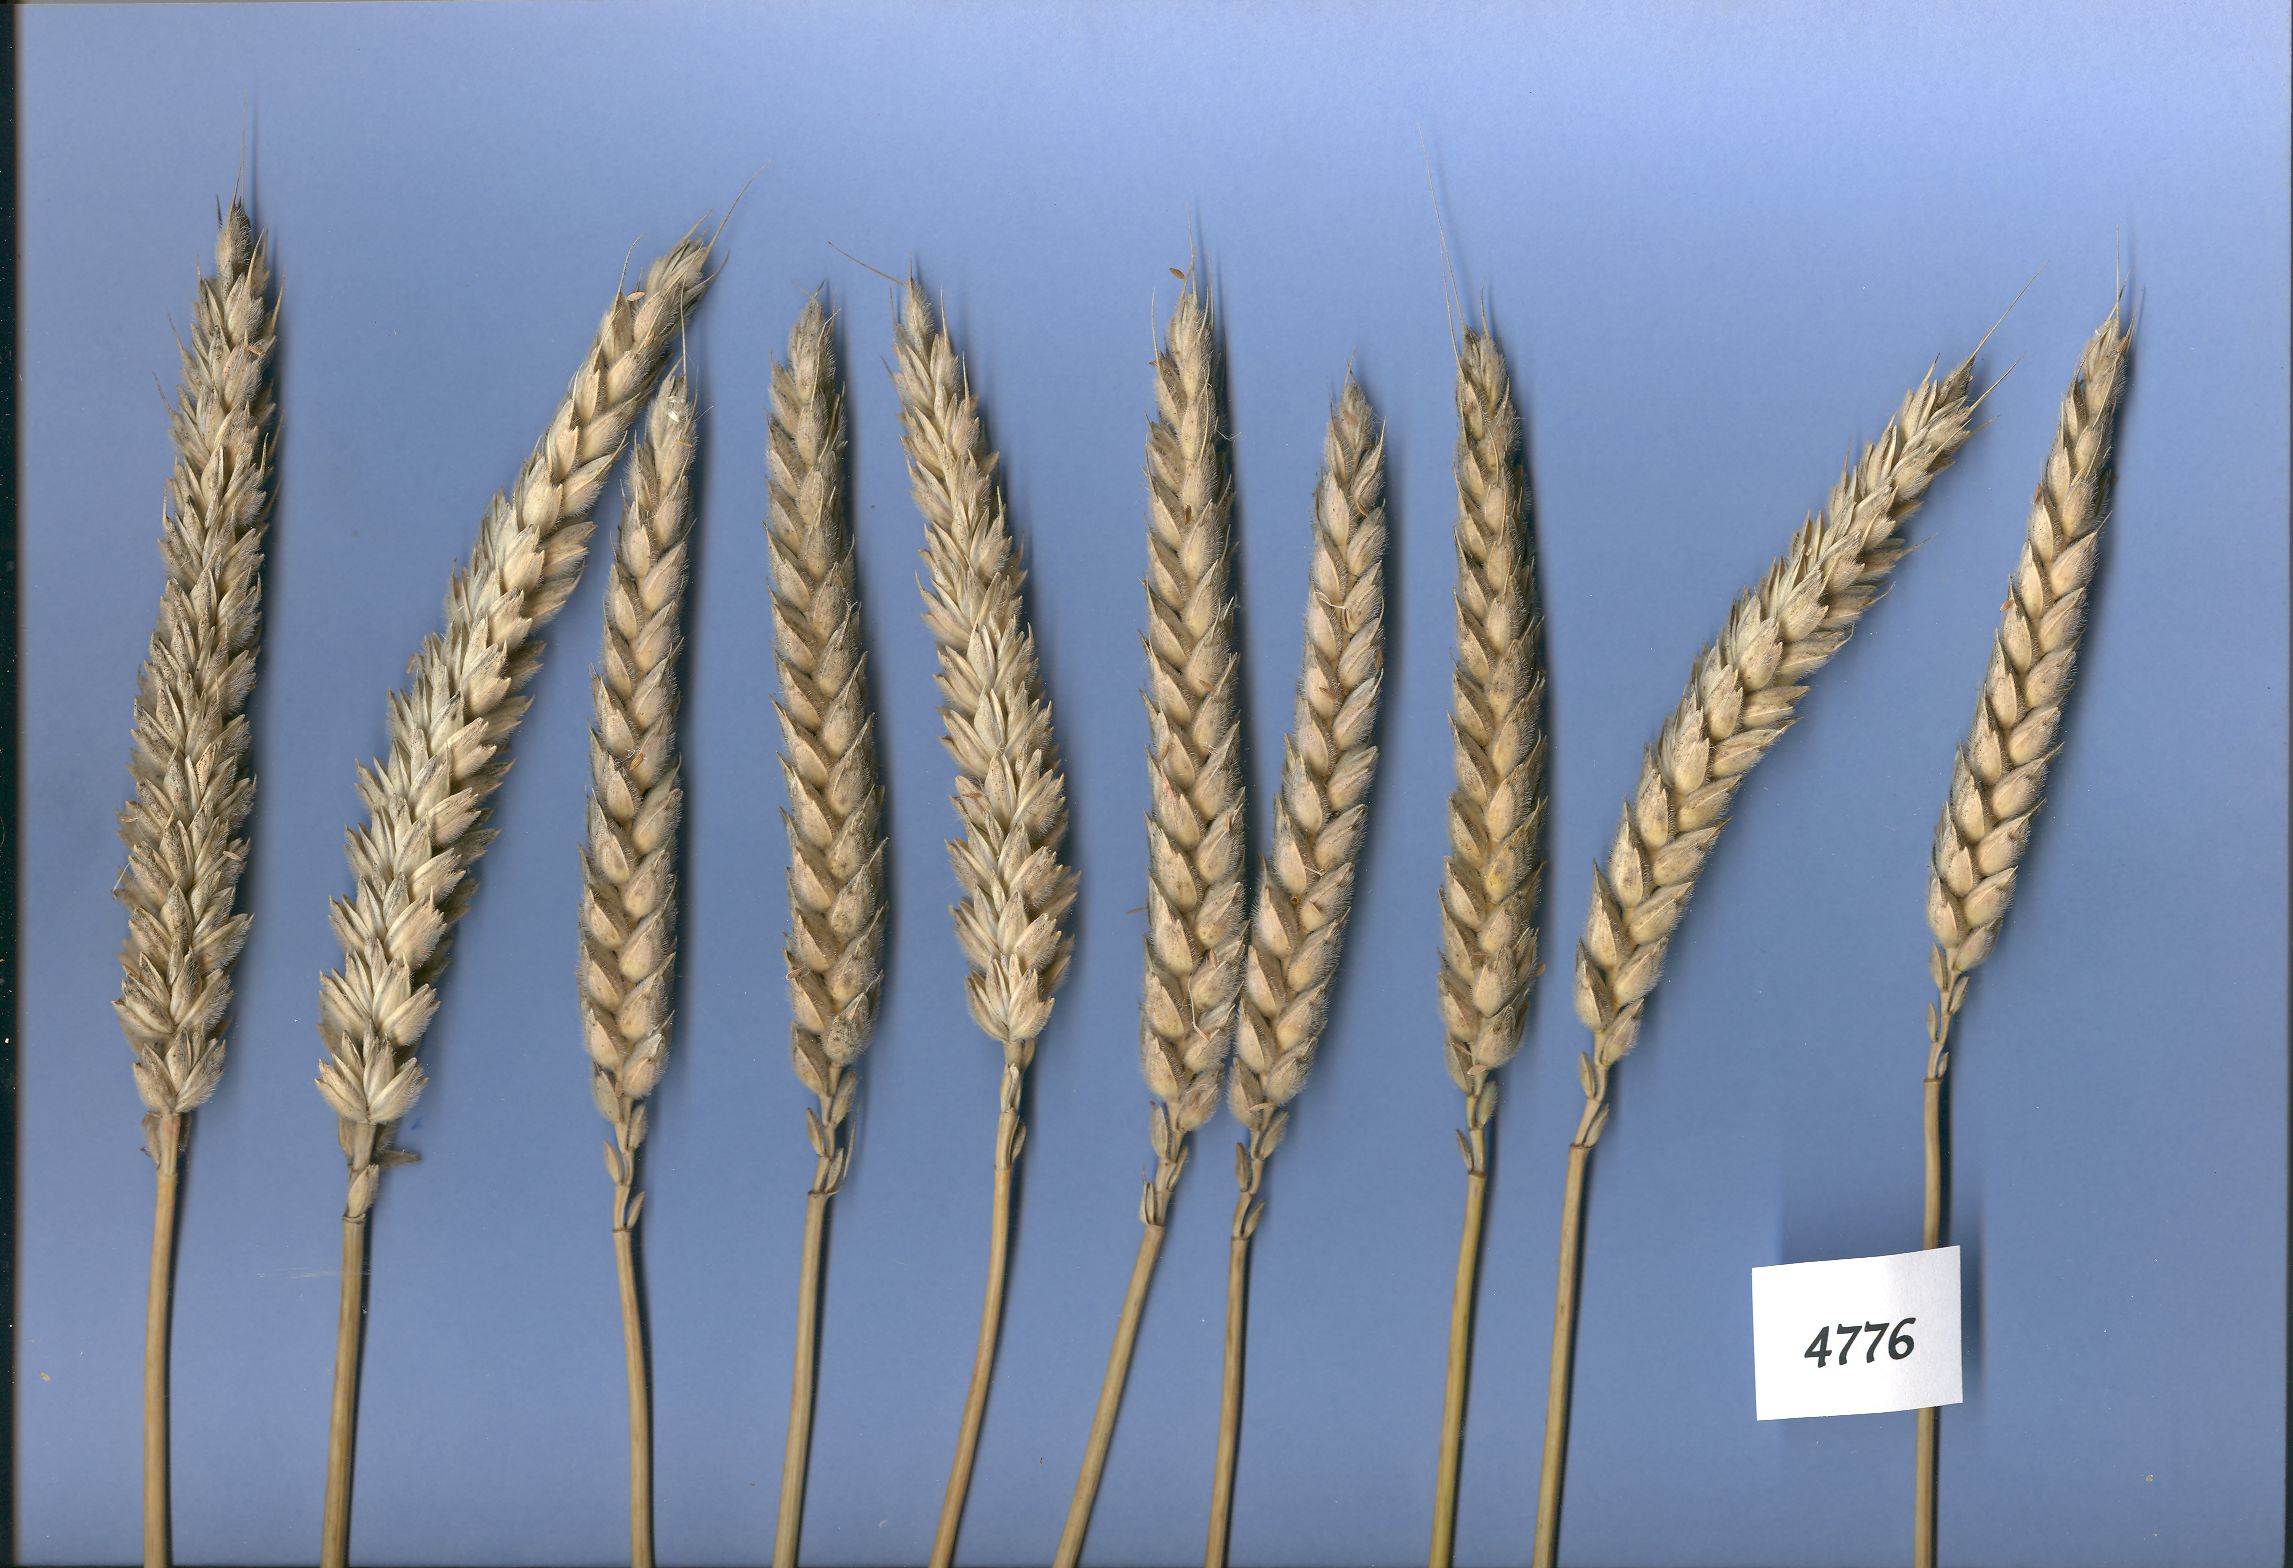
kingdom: Plantae
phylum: Tracheophyta
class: Liliopsida
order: Poales
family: Poaceae
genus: Triticum
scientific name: Triticum aestivum
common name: Common wheat
